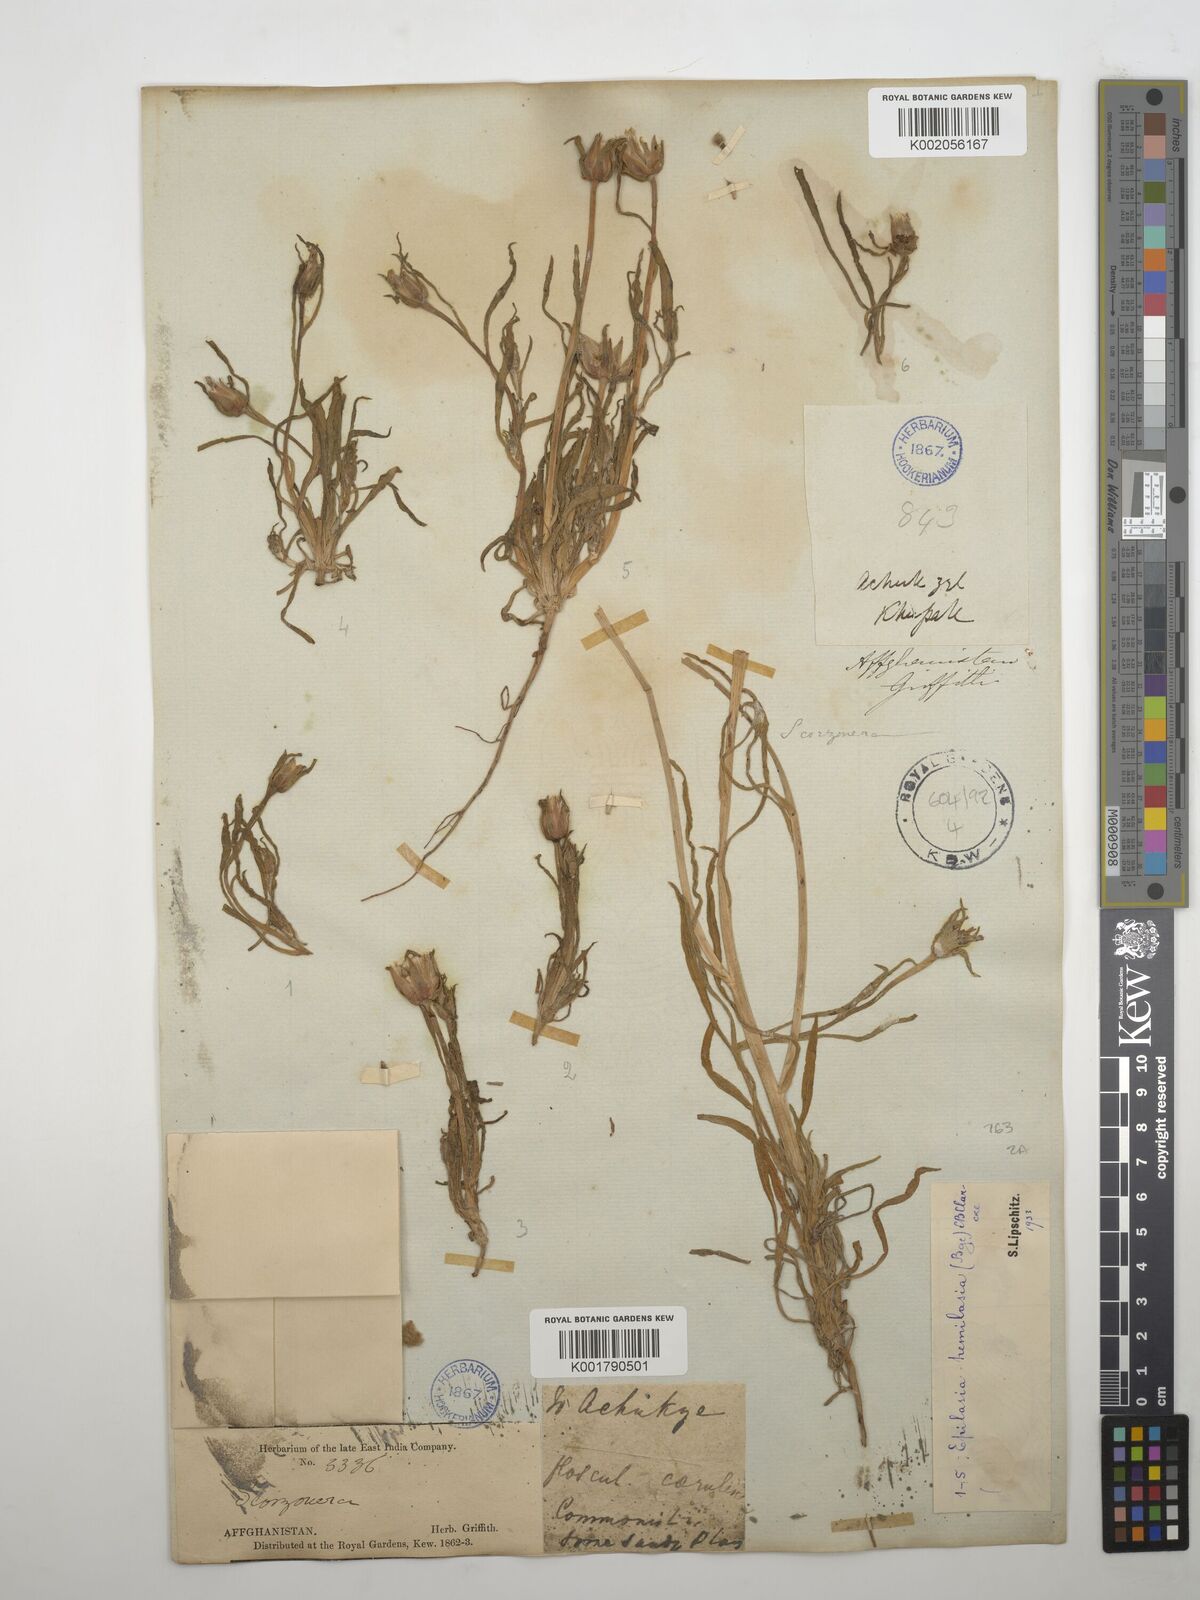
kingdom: Plantae
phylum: Tracheophyta
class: Magnoliopsida
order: Asterales
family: Asteraceae
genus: Epilasia
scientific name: Epilasia hemilasia
